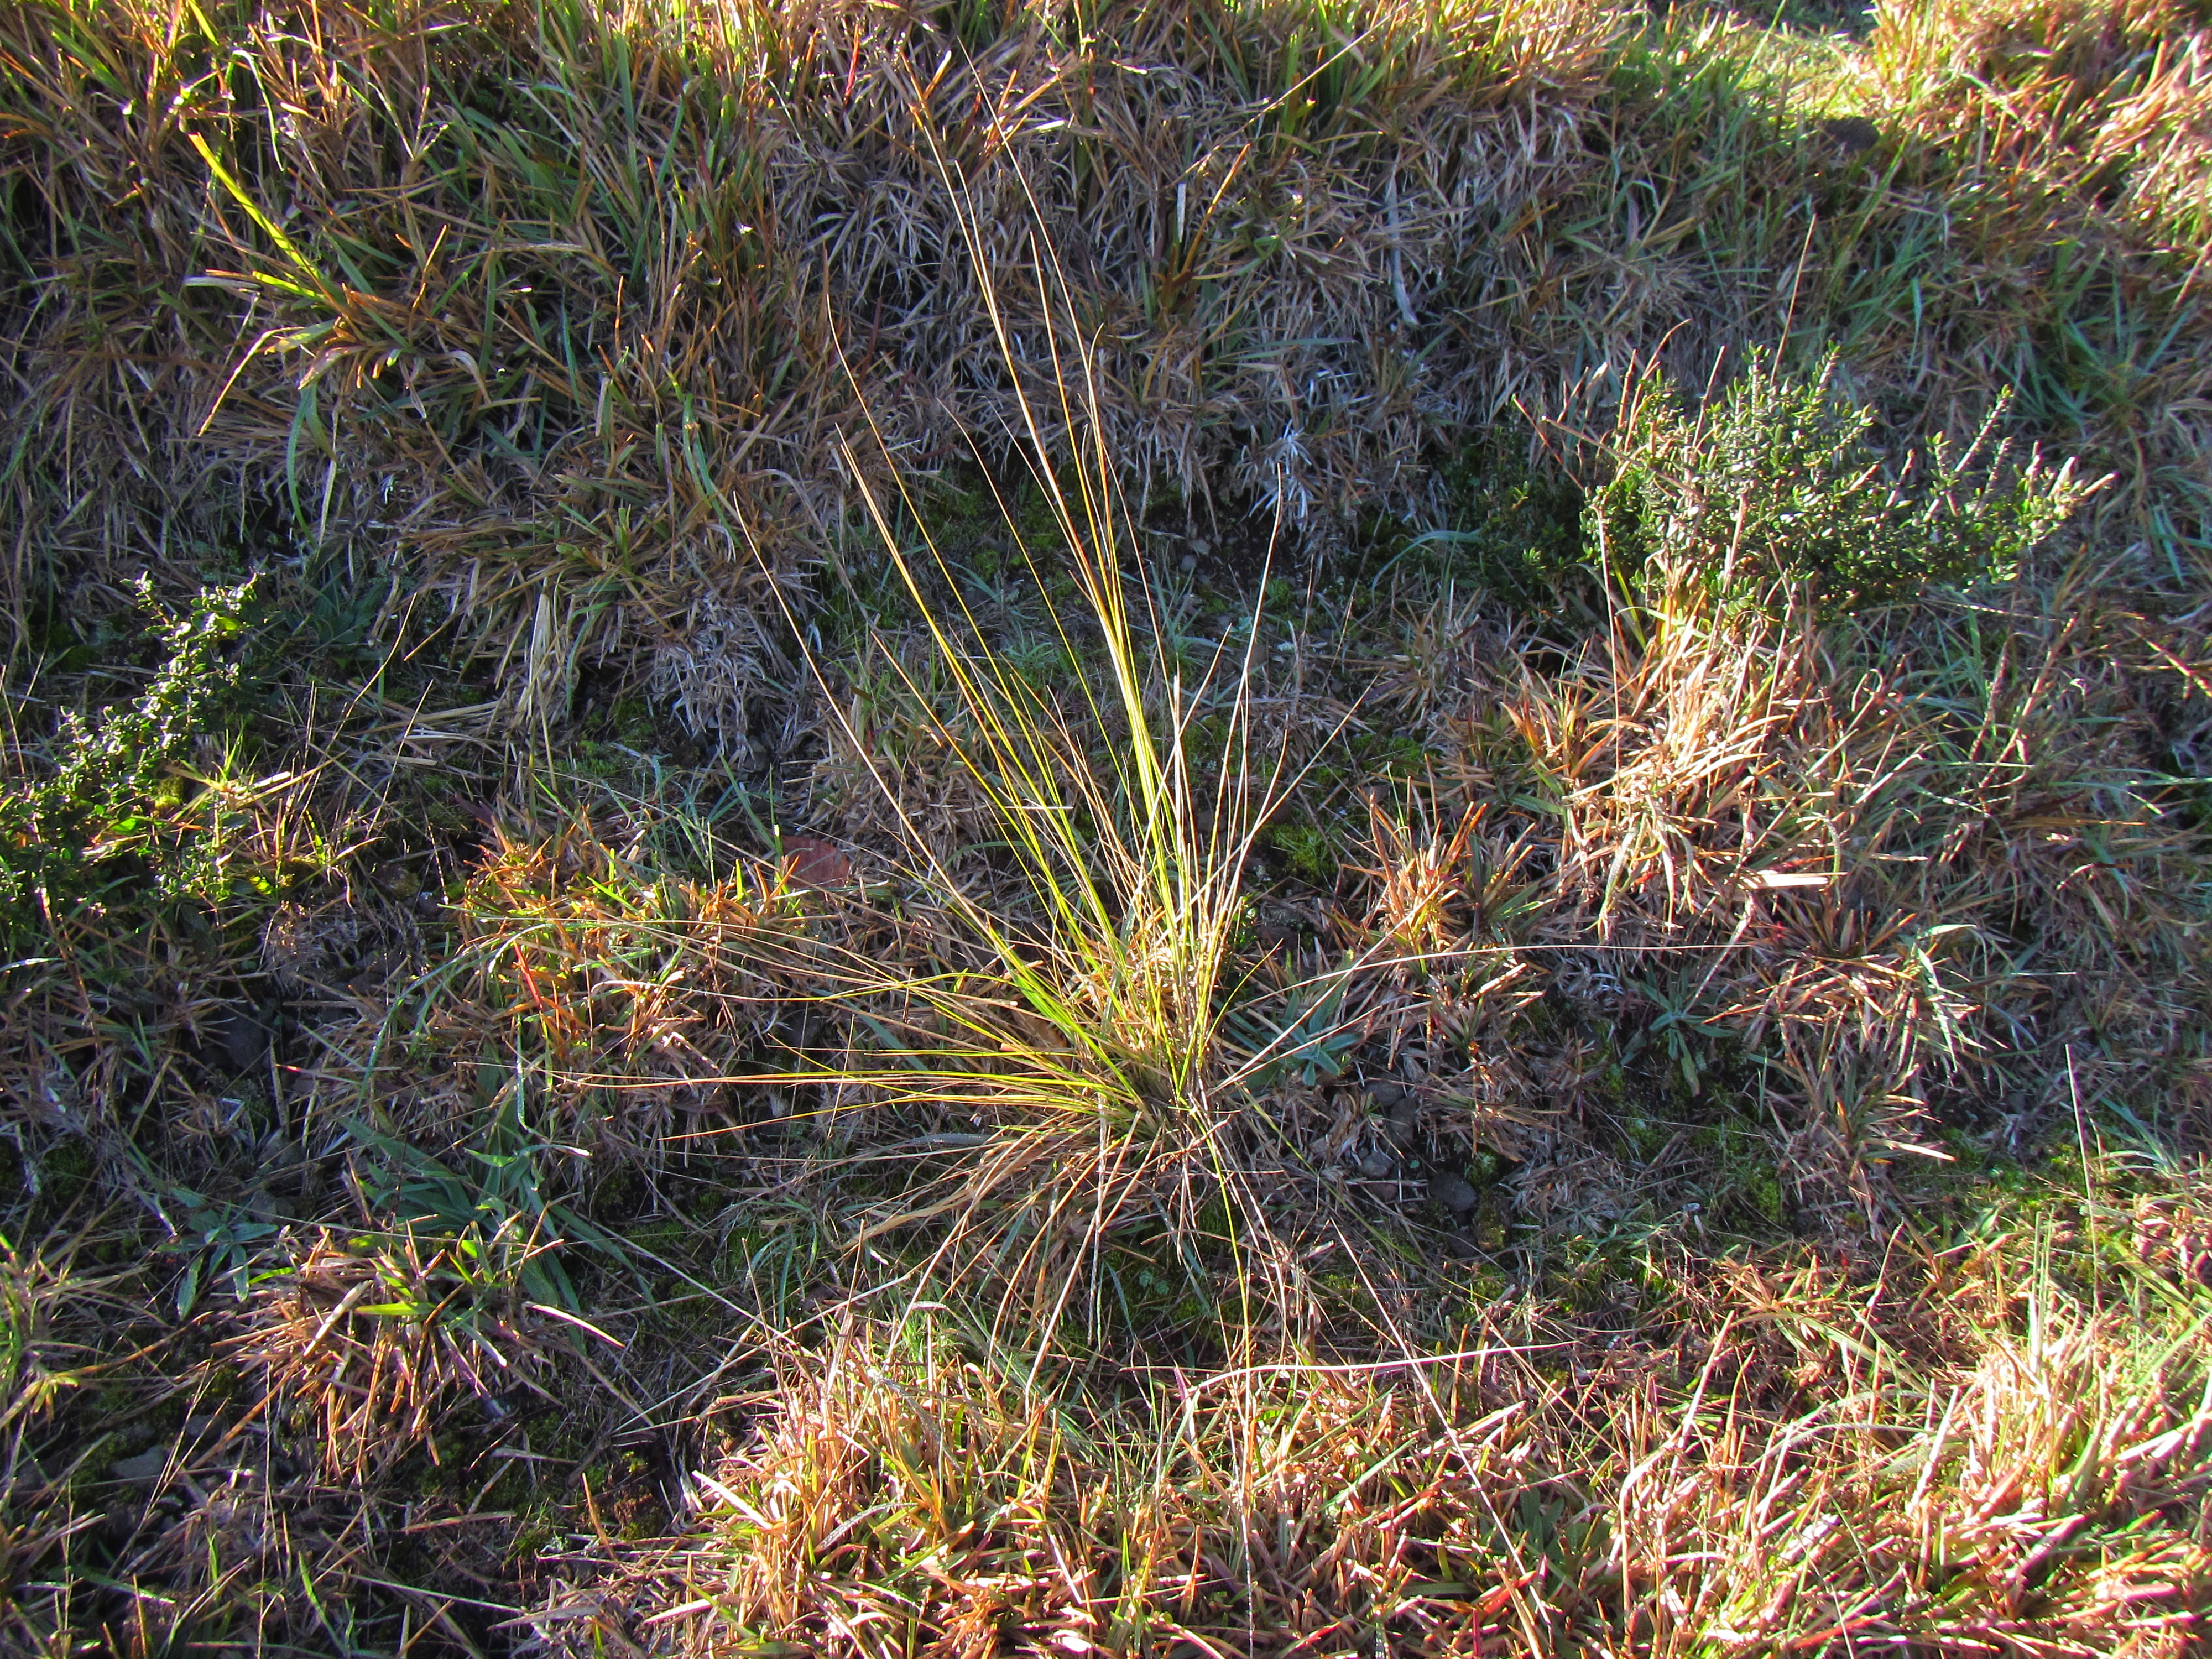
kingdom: Plantae
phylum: Tracheophyta
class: Liliopsida
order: Poales
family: Poaceae
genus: Cenchrus
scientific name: Cenchrus setaceus
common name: Crimson fountaingrass
